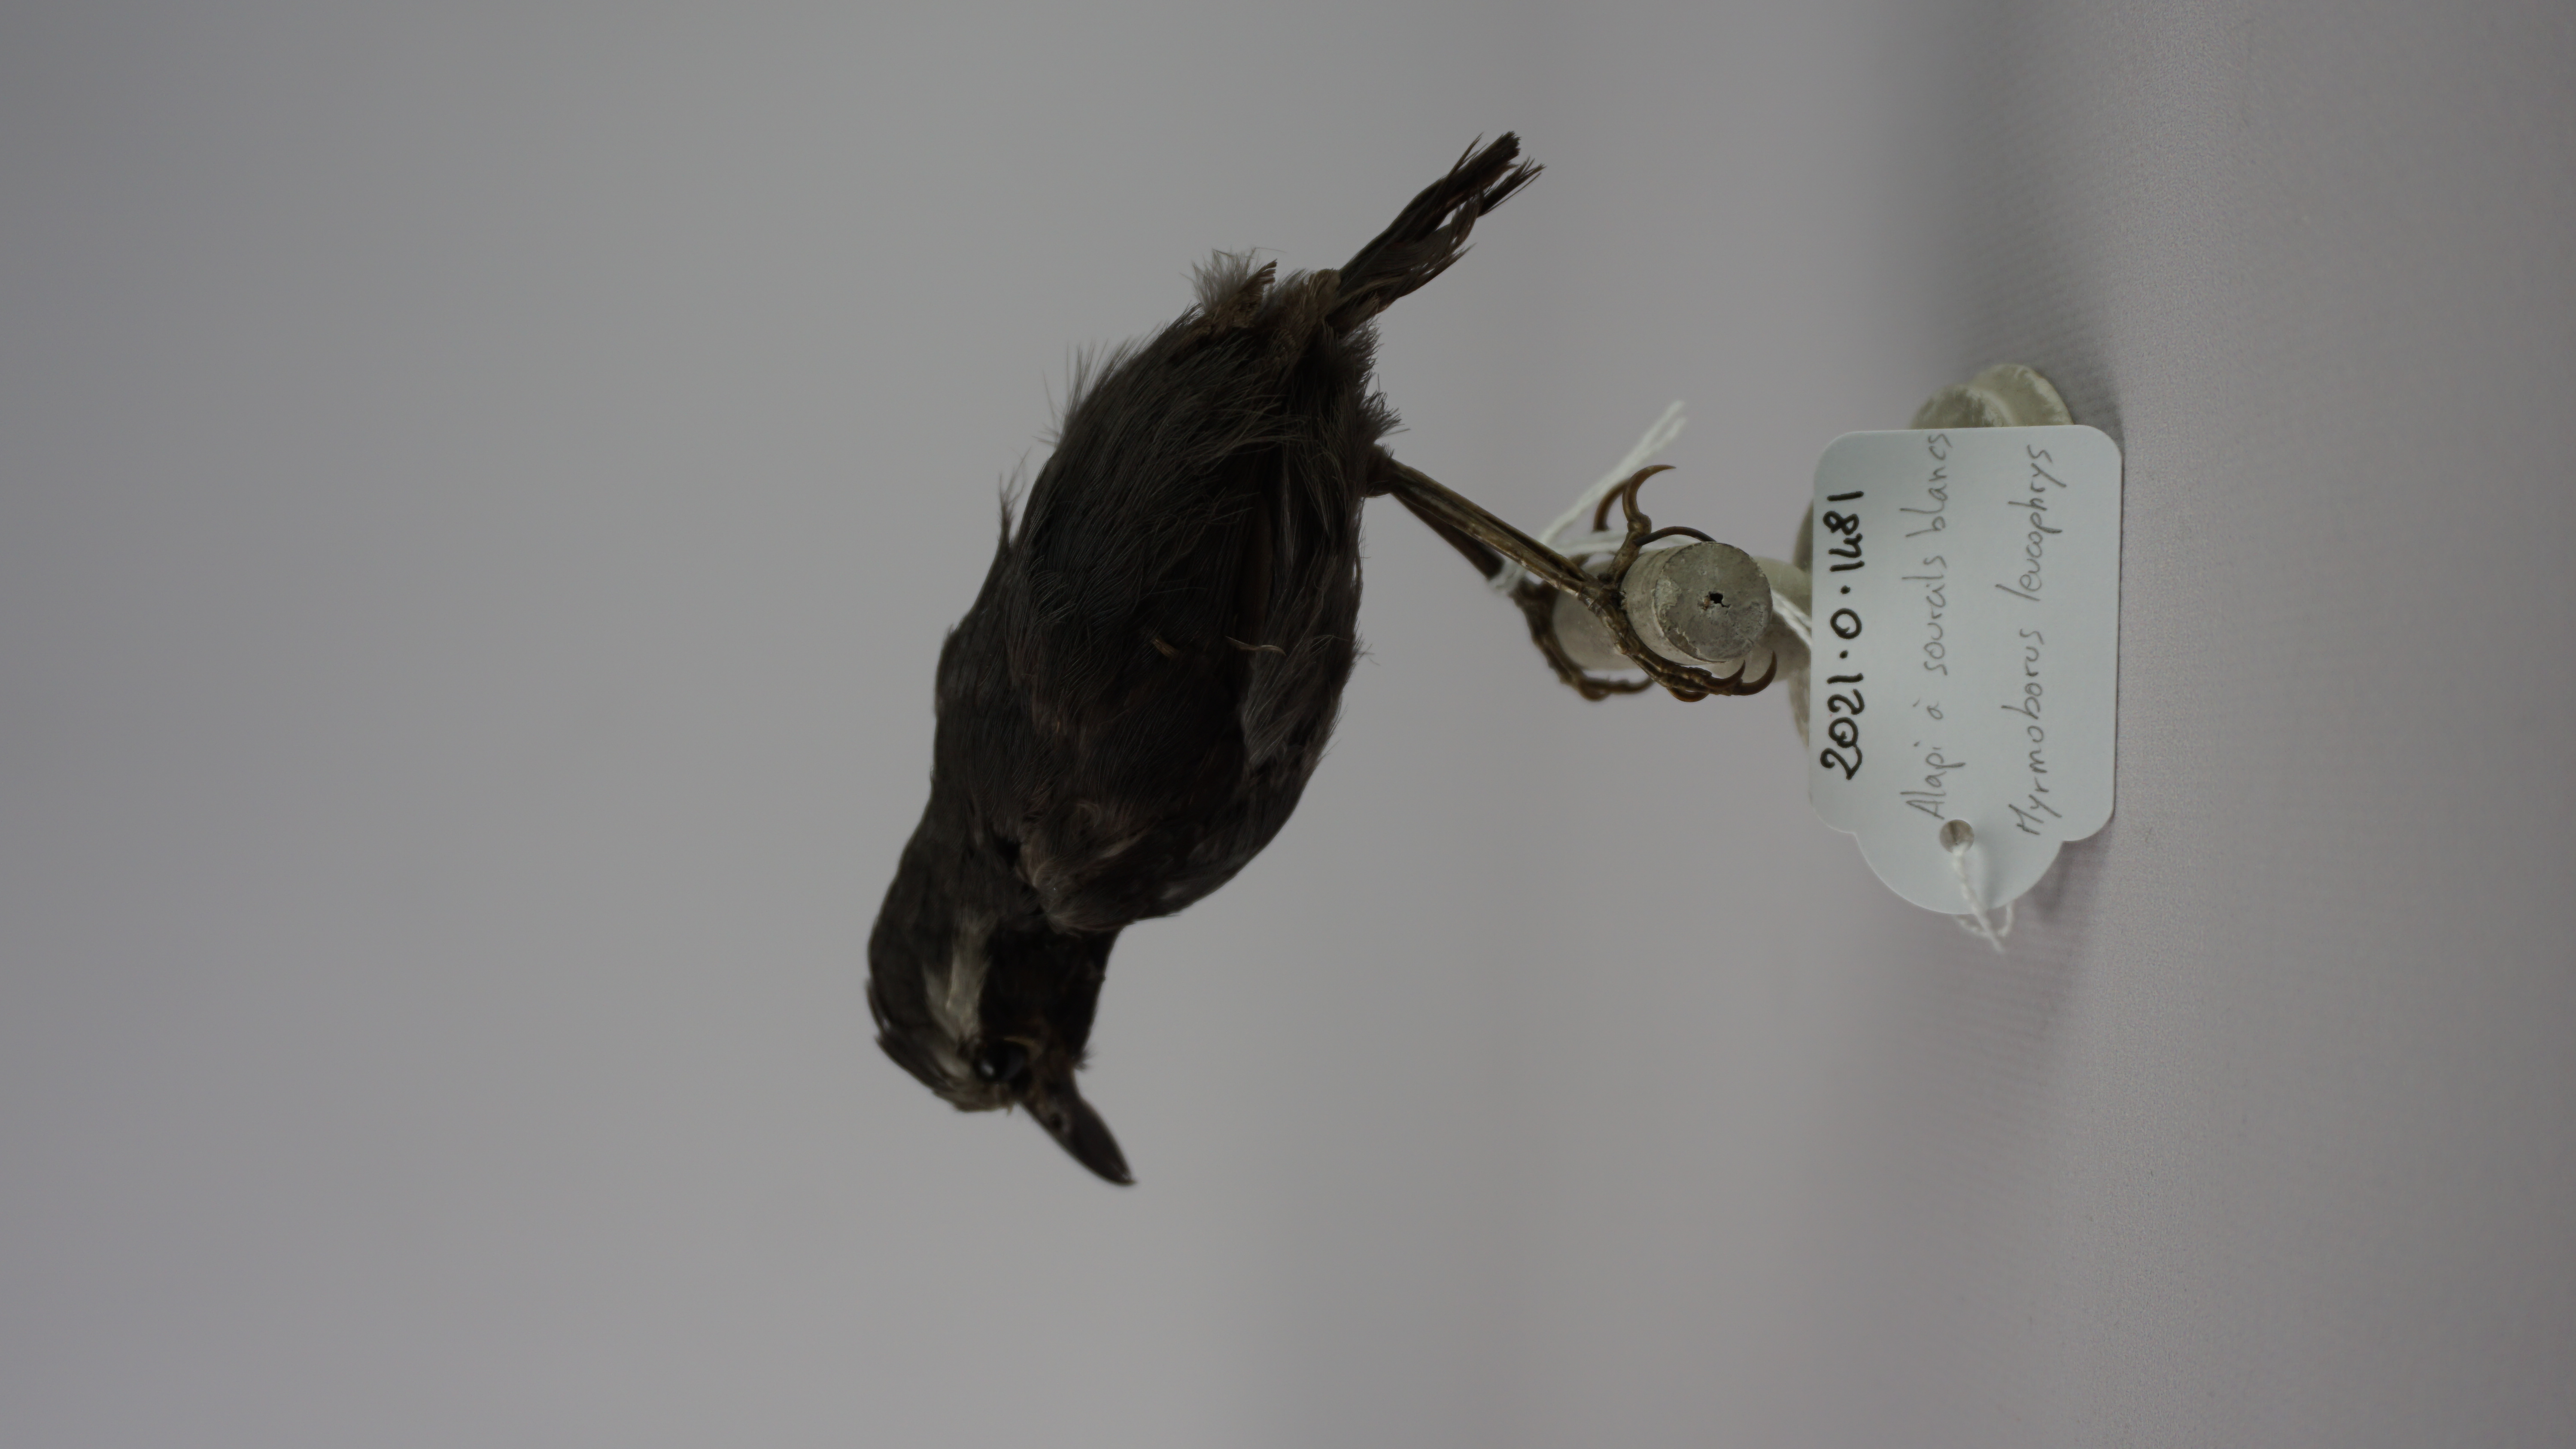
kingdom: Animalia
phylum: Chordata
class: Aves
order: Passeriformes
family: Thamnophilidae
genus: Myrmoborus
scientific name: Myrmoborus leucophrys
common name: White-browed antbird
